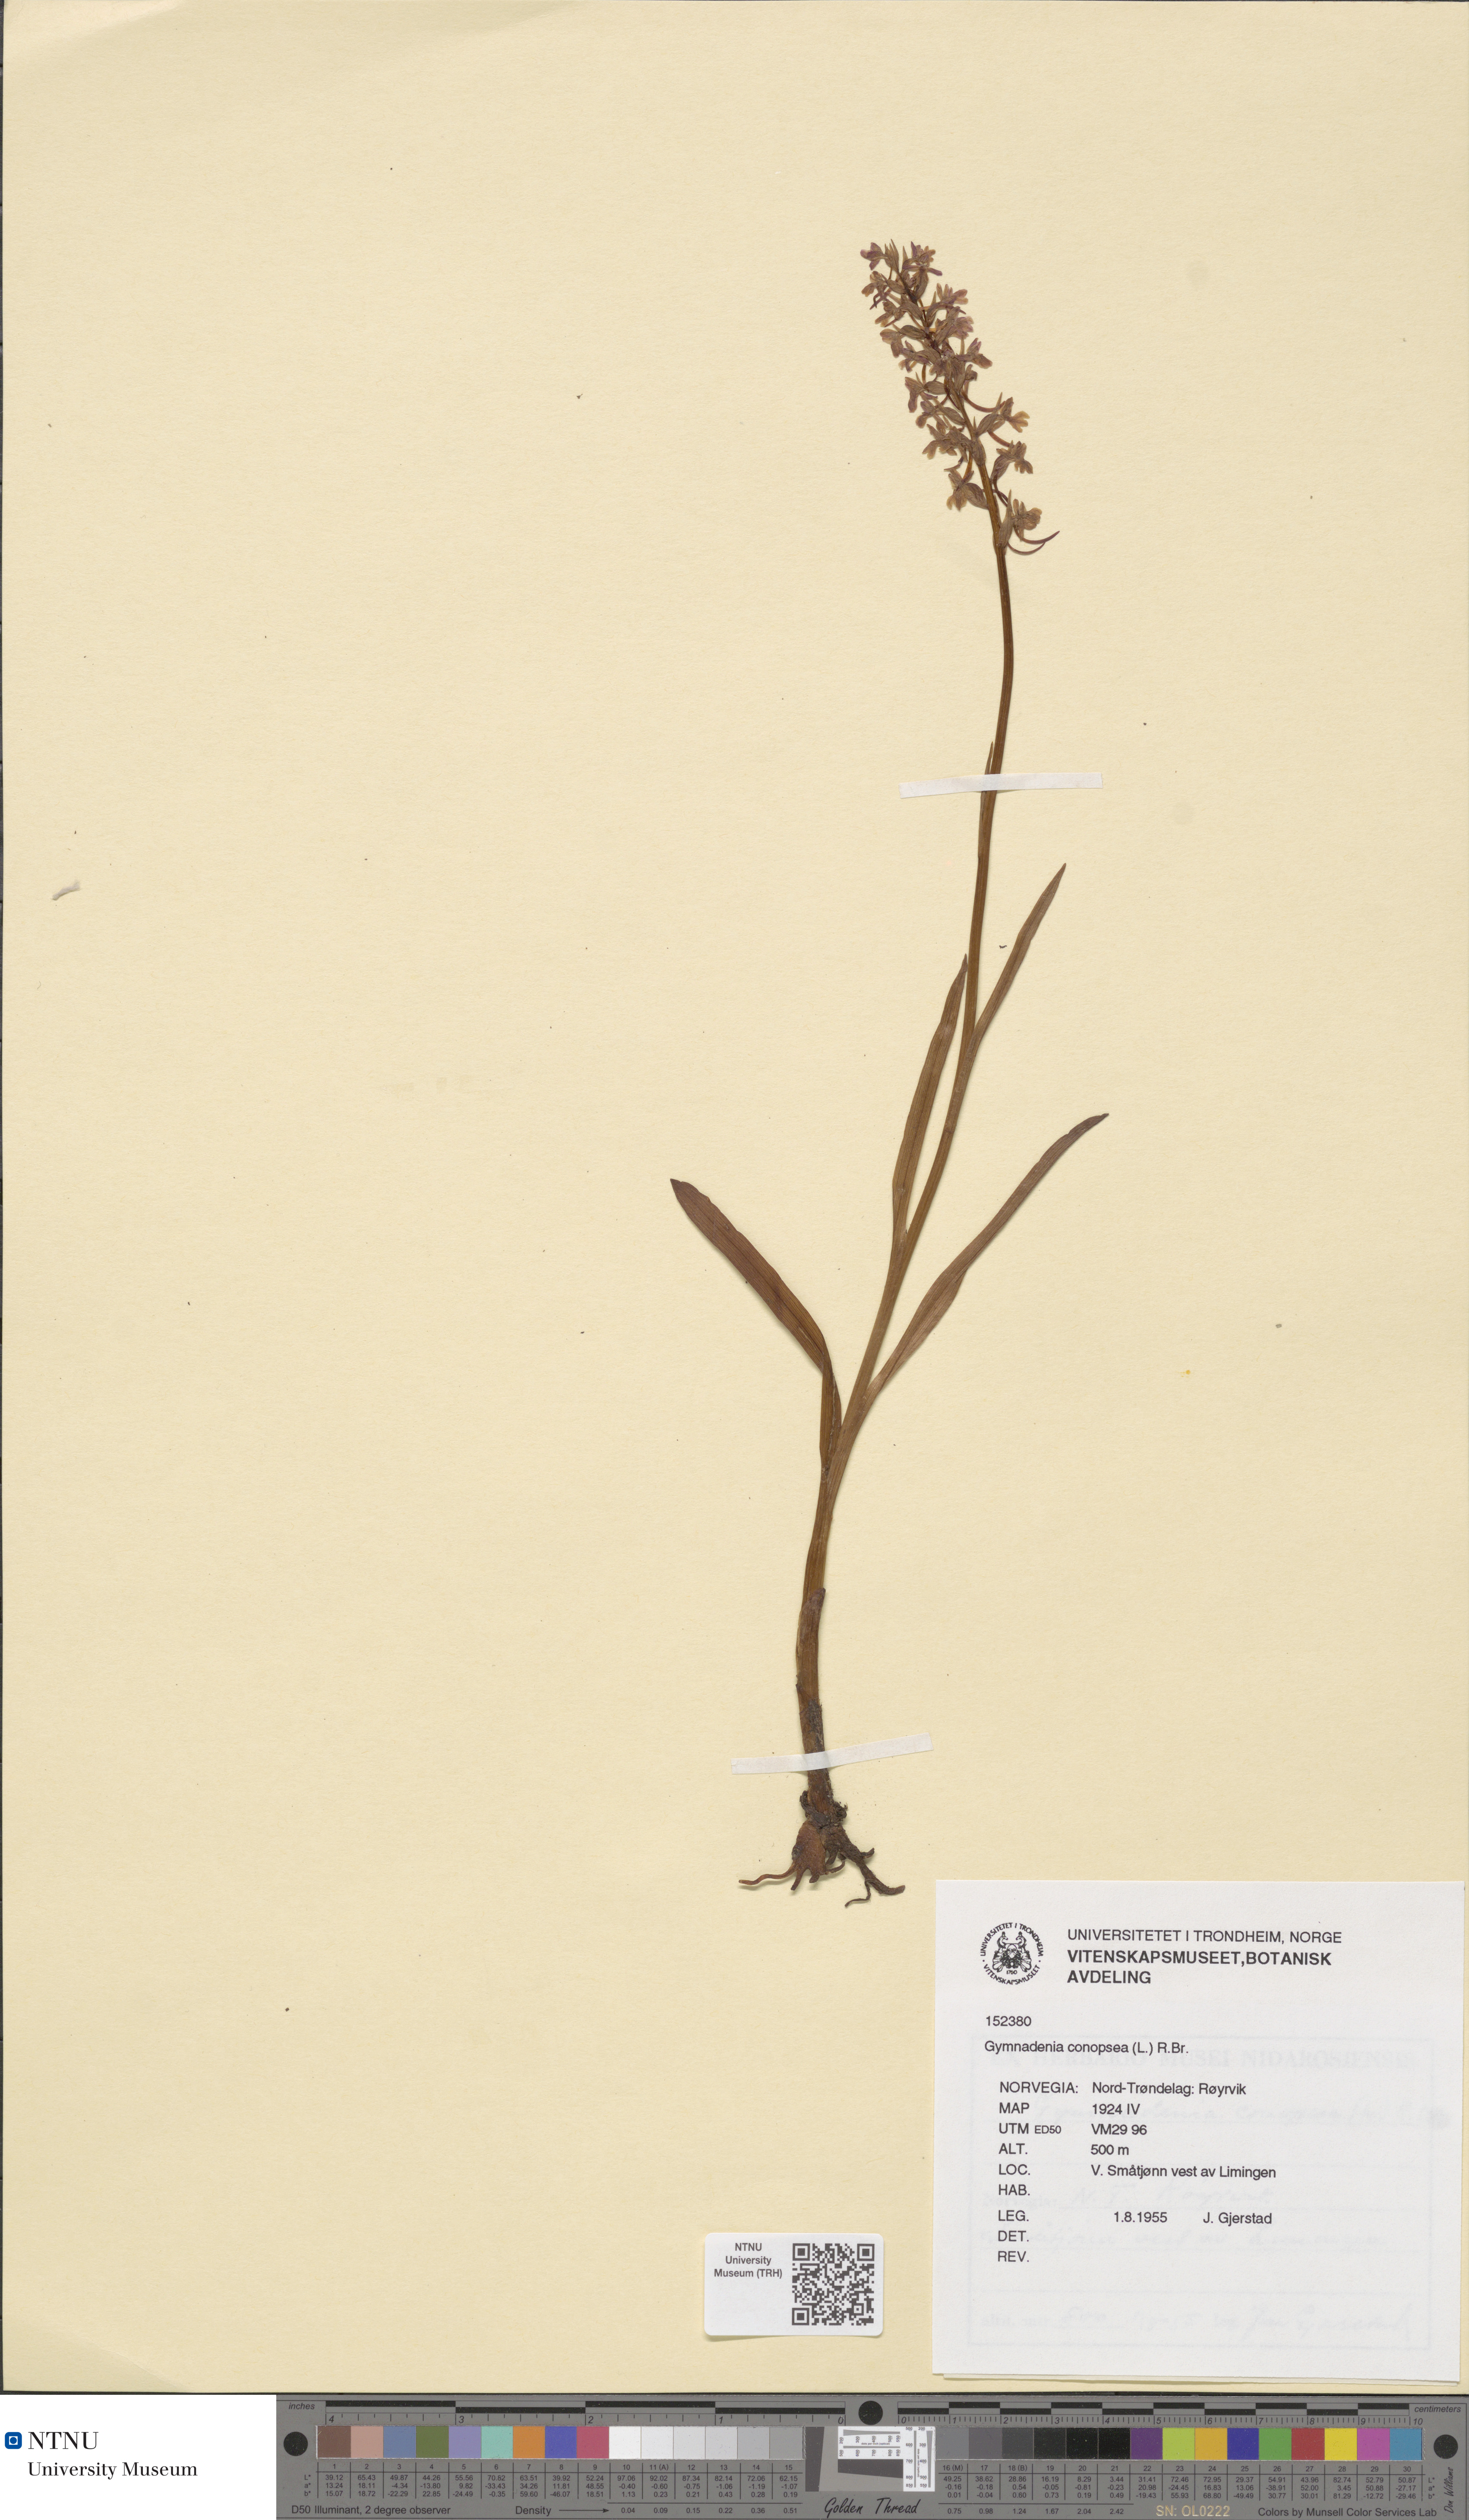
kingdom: Plantae
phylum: Tracheophyta
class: Liliopsida
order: Asparagales
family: Orchidaceae
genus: Gymnadenia
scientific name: Gymnadenia conopsea
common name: Fragrant orchid
